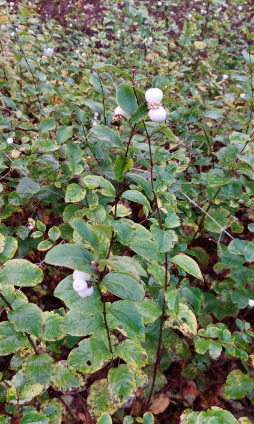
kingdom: Plantae
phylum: Tracheophyta
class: Magnoliopsida
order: Dipsacales
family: Caprifoliaceae
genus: Symphoricarpos
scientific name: Symphoricarpos albus
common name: Almindelig snebær
